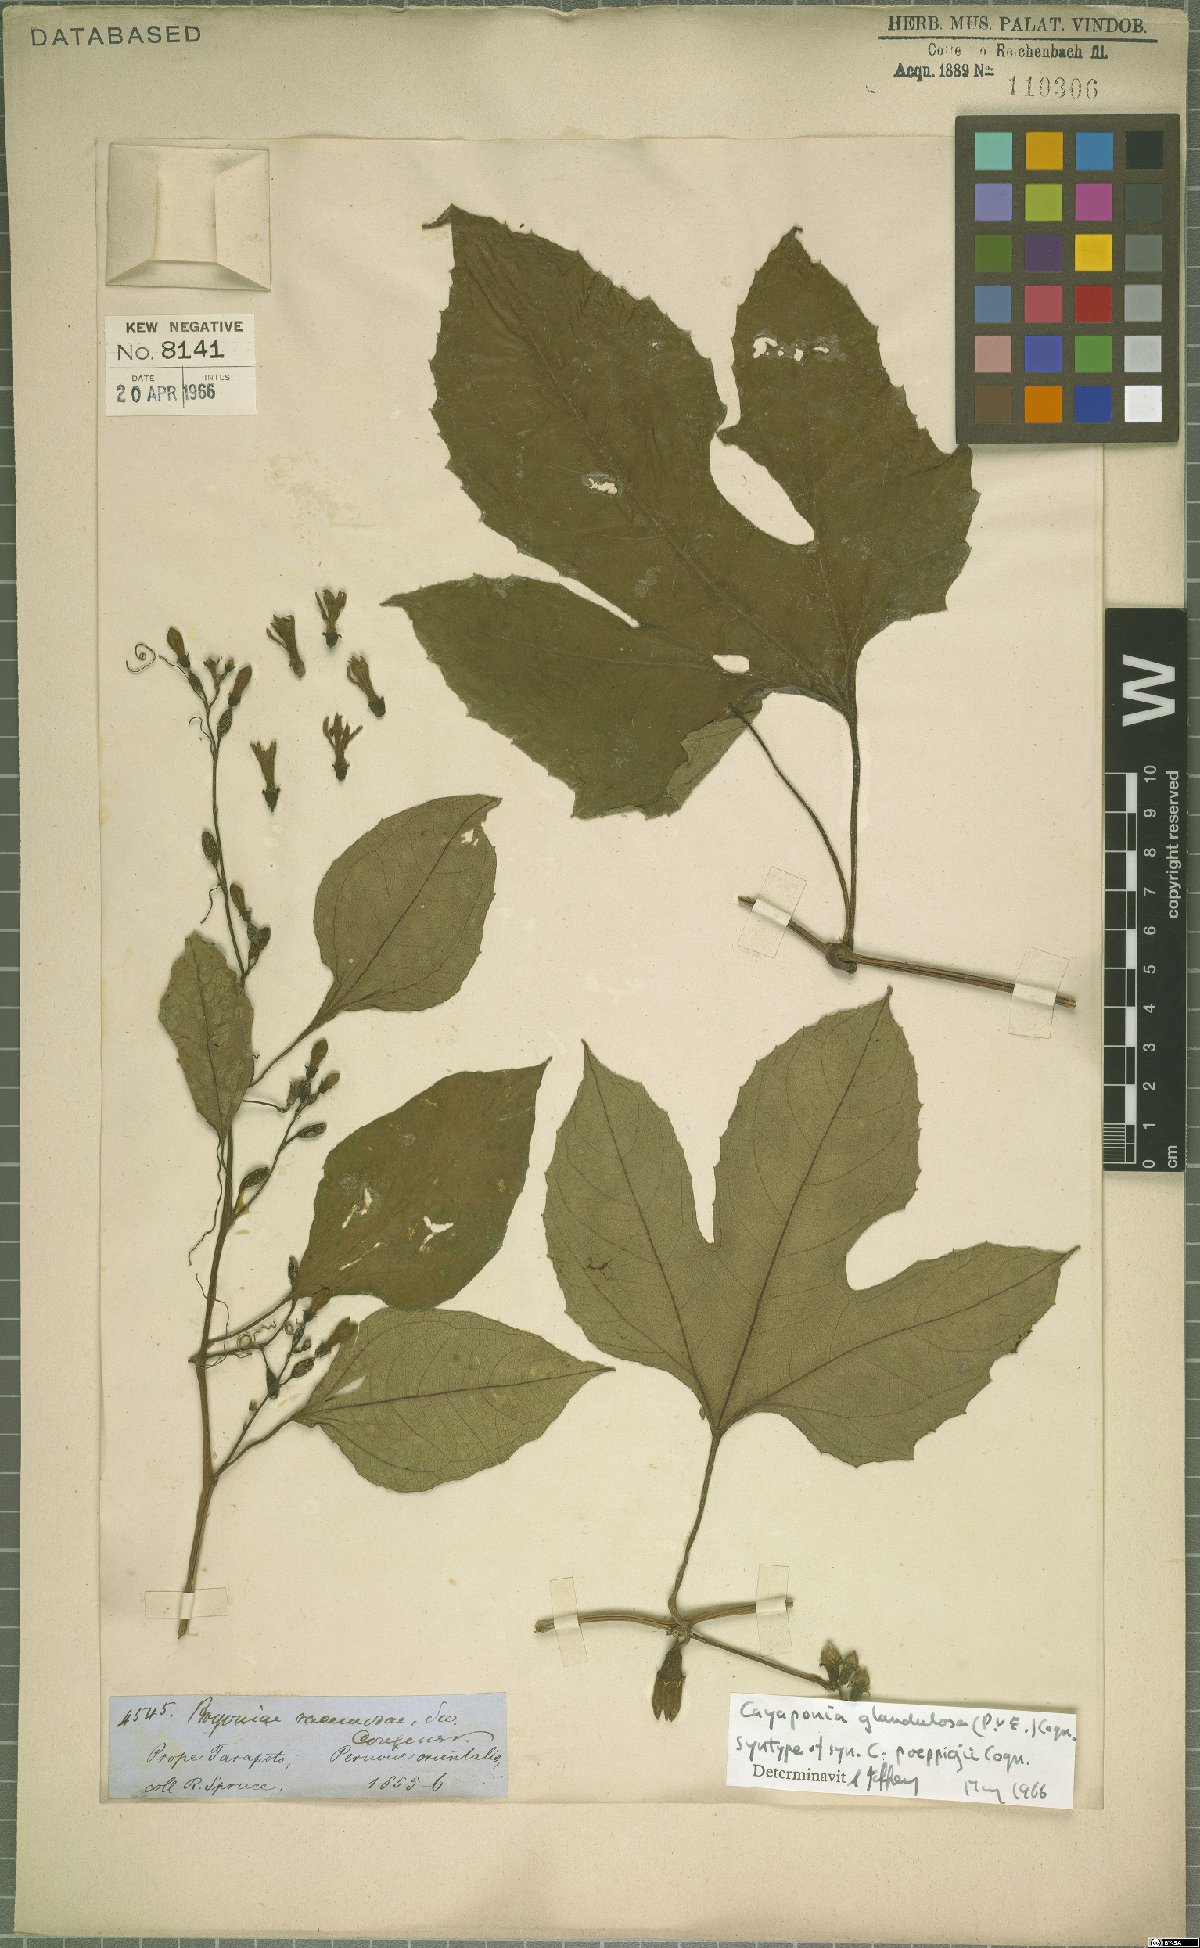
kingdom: Plantae
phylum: Tracheophyta
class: Magnoliopsida
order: Cucurbitales
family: Cucurbitaceae
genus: Cayaponia
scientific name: Cayaponia glandulosa
